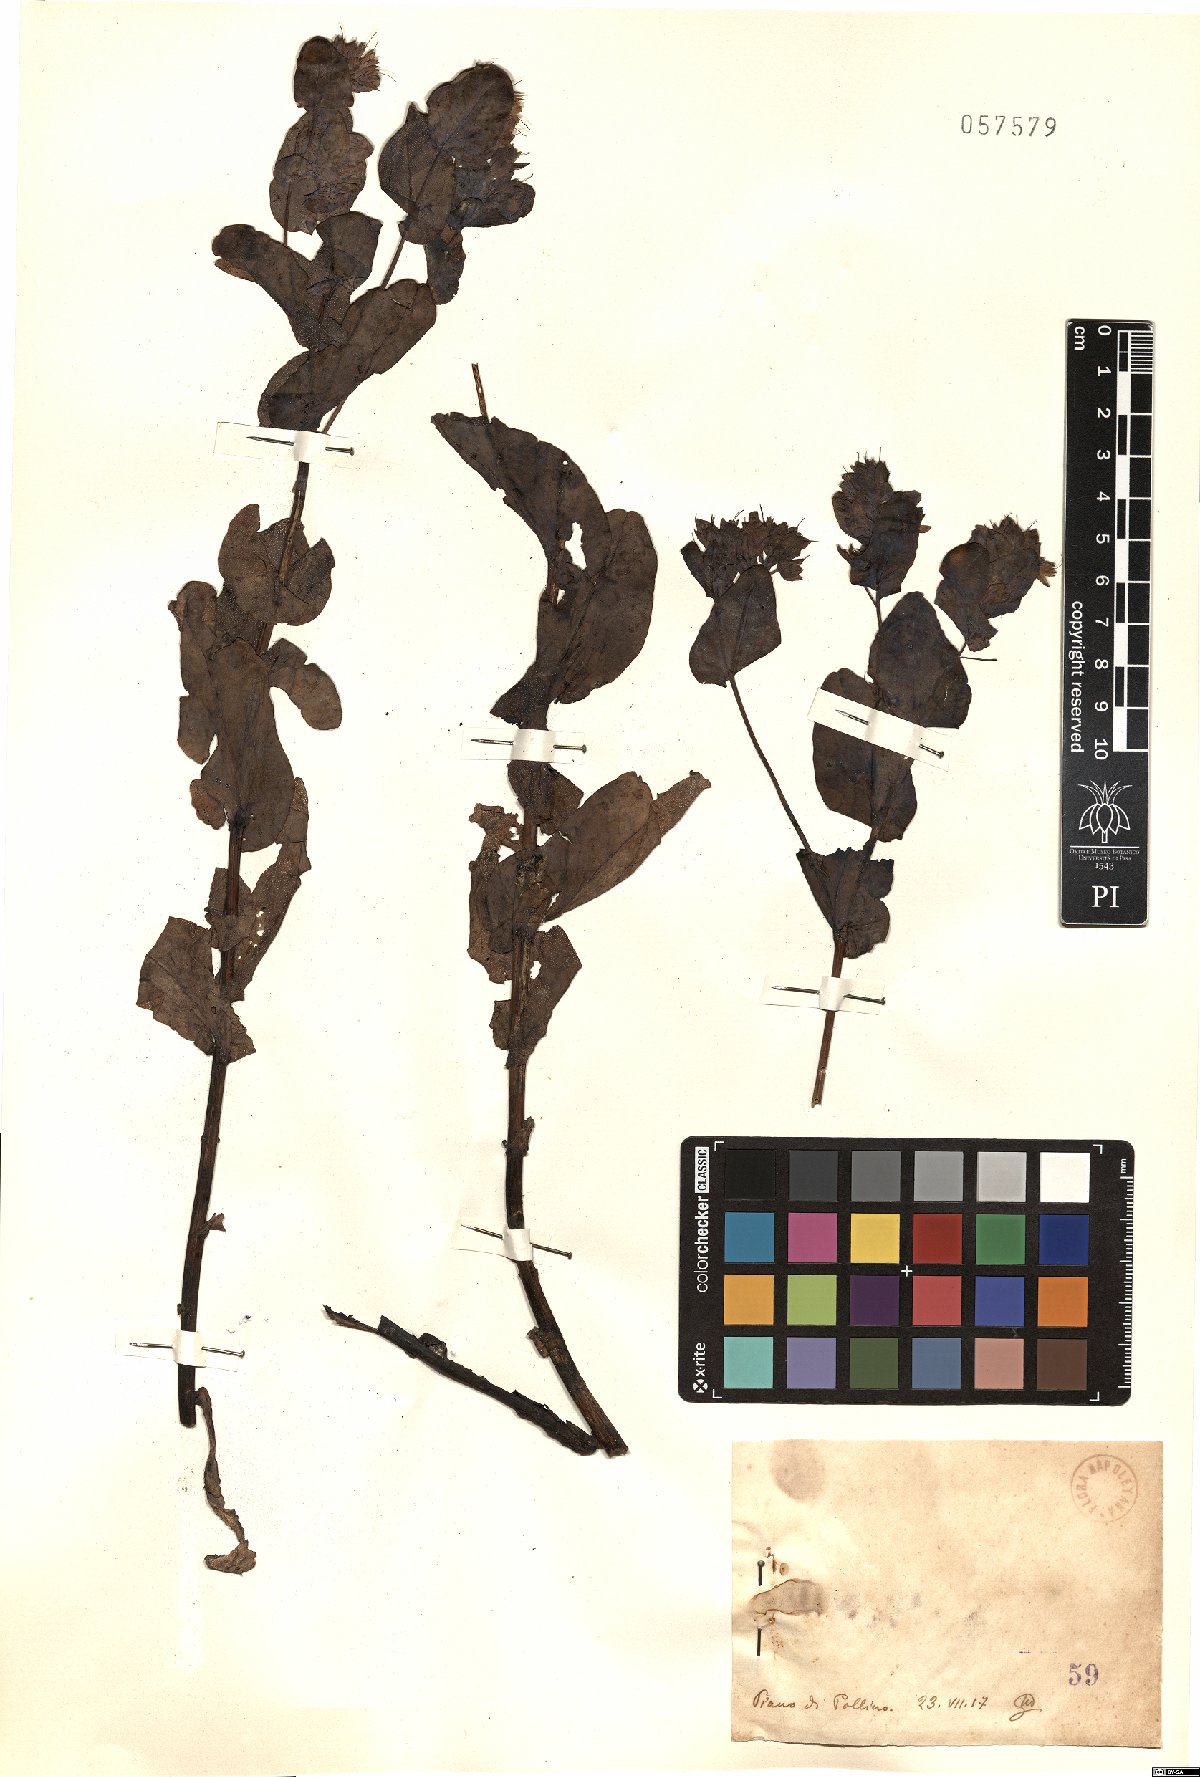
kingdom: Plantae
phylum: Tracheophyta
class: Magnoliopsida
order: Boraginales
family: Boraginaceae
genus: Cerinthe
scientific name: Cerinthe
